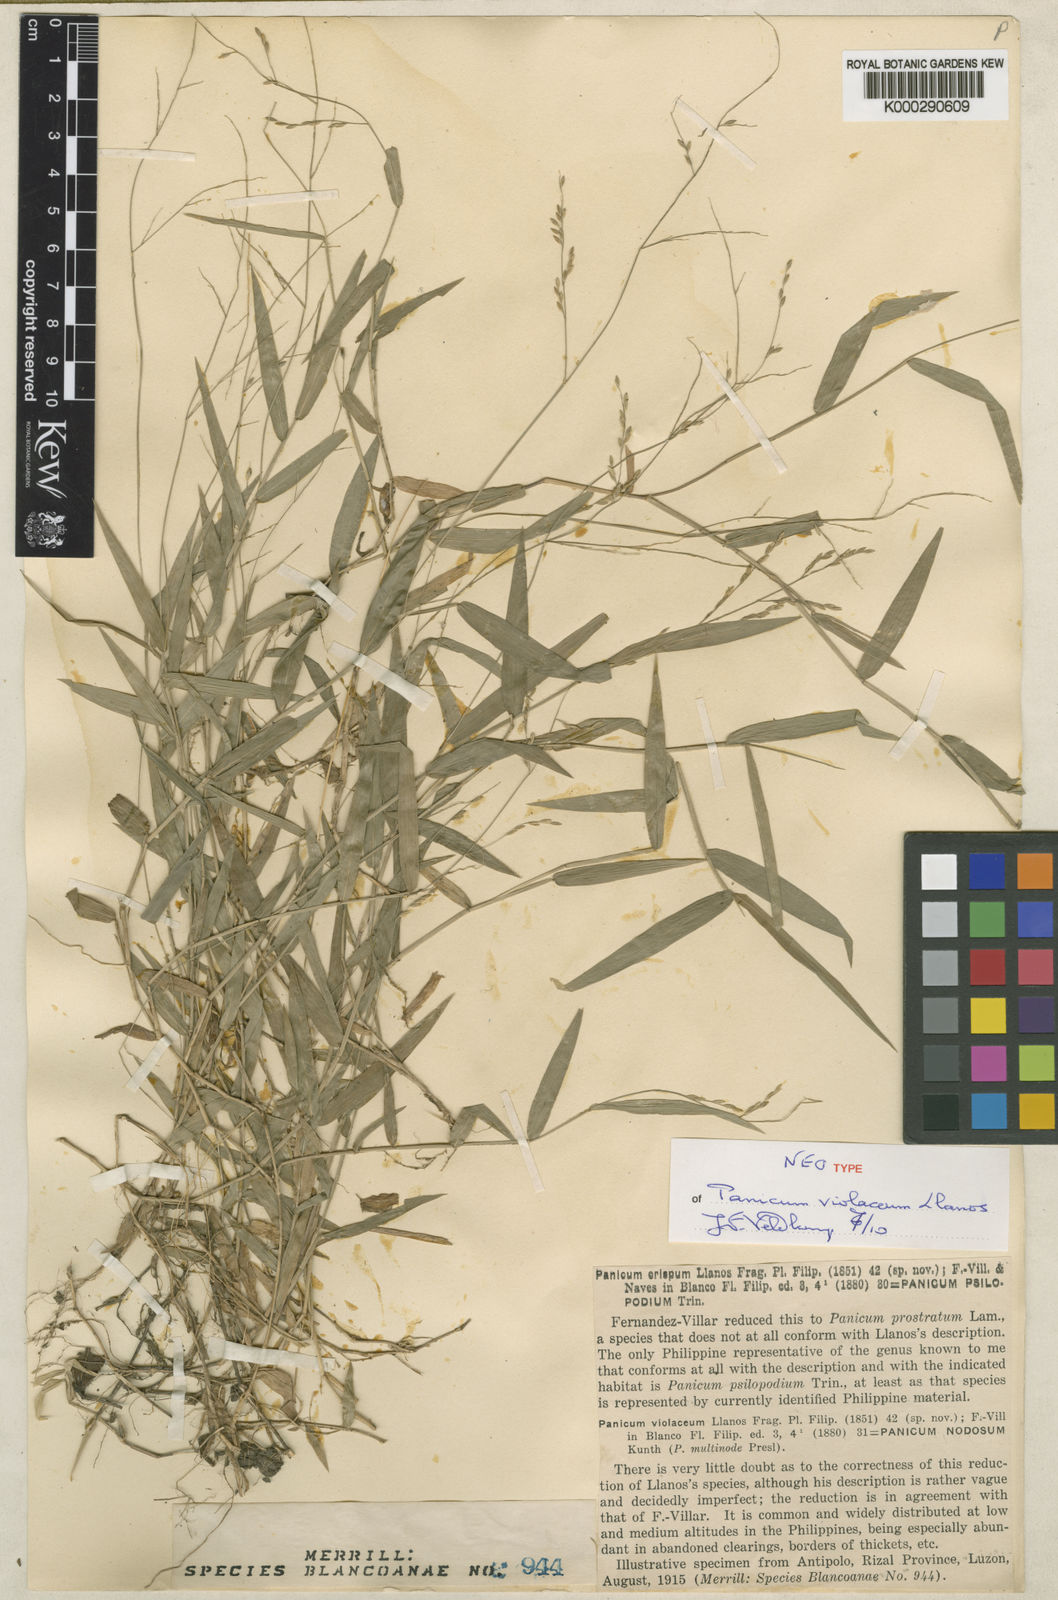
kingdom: Plantae
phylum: Tracheophyta
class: Liliopsida
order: Poales
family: Poaceae
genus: Ottochloa
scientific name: Ottochloa nodosa
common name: Slender-panic grass
